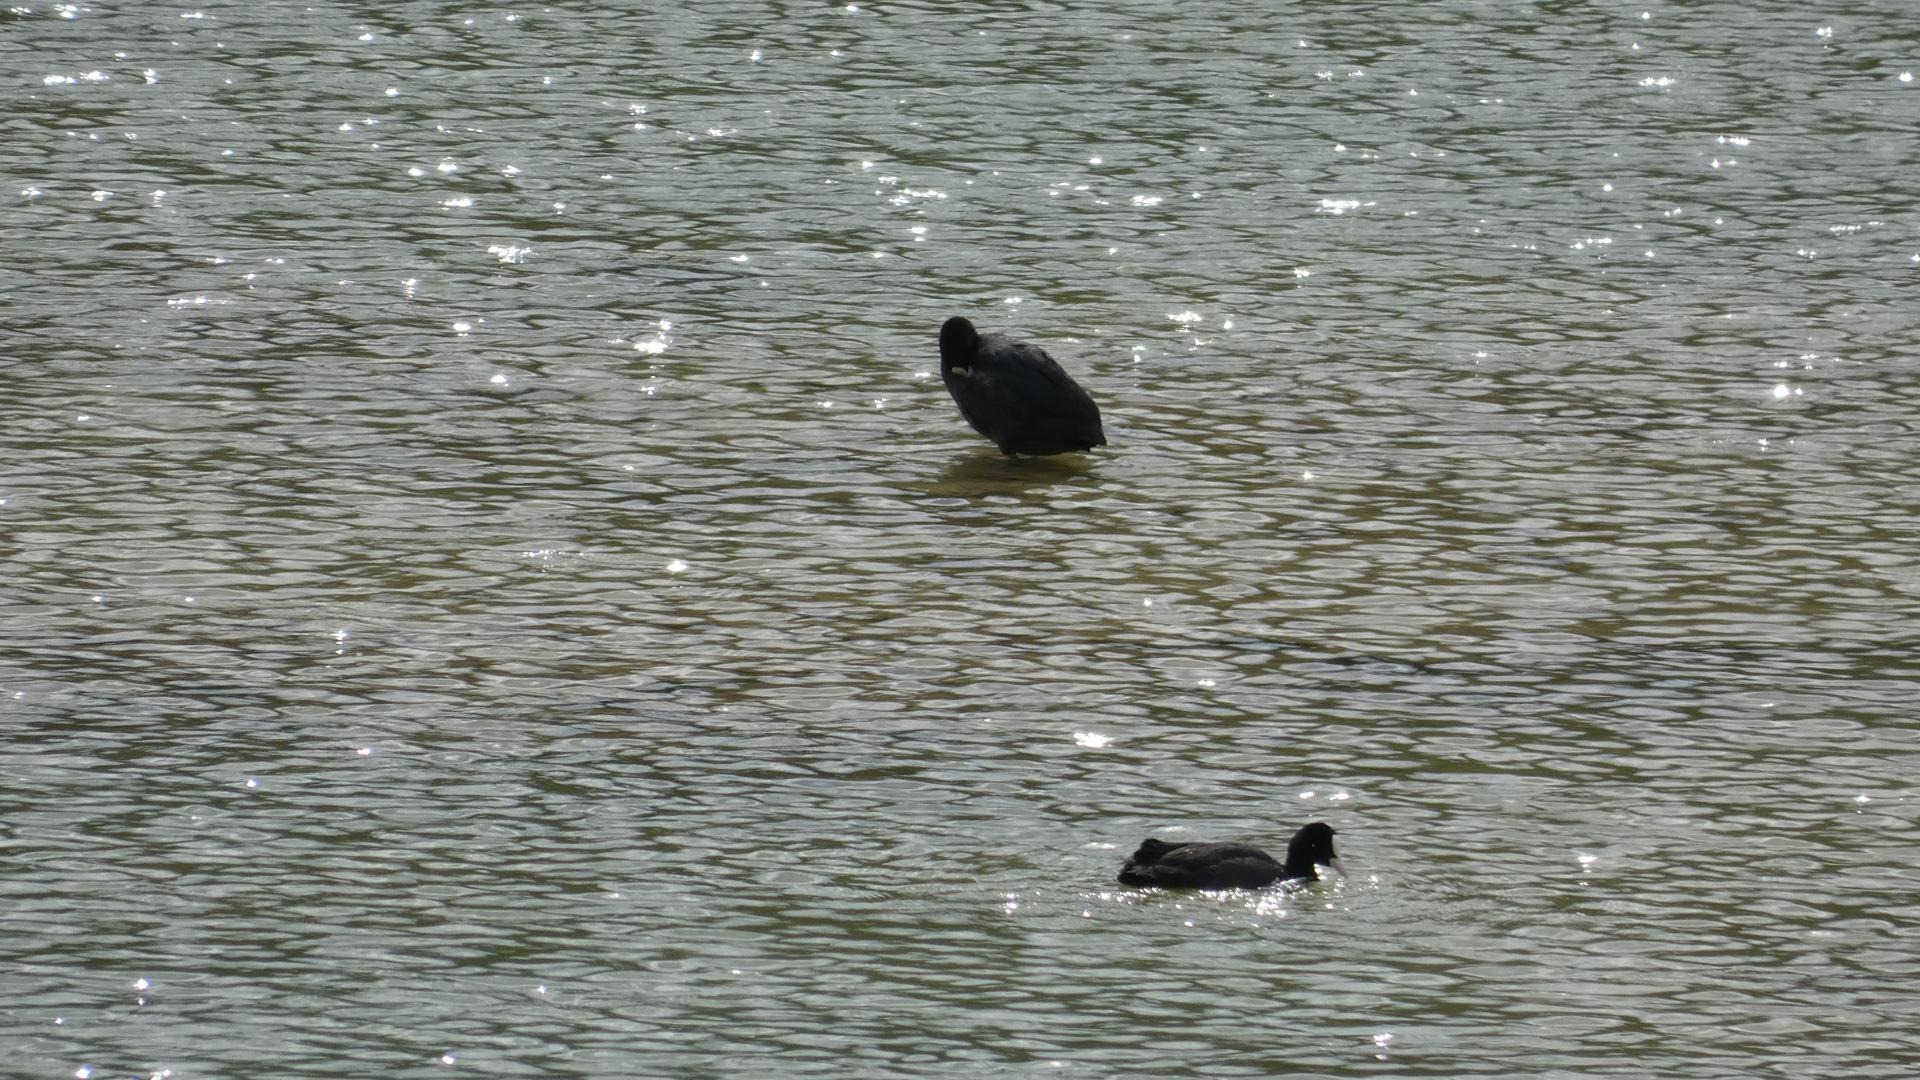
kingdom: Animalia
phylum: Chordata
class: Aves
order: Gruiformes
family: Rallidae
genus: Fulica
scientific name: Fulica atra
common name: Blishøne
